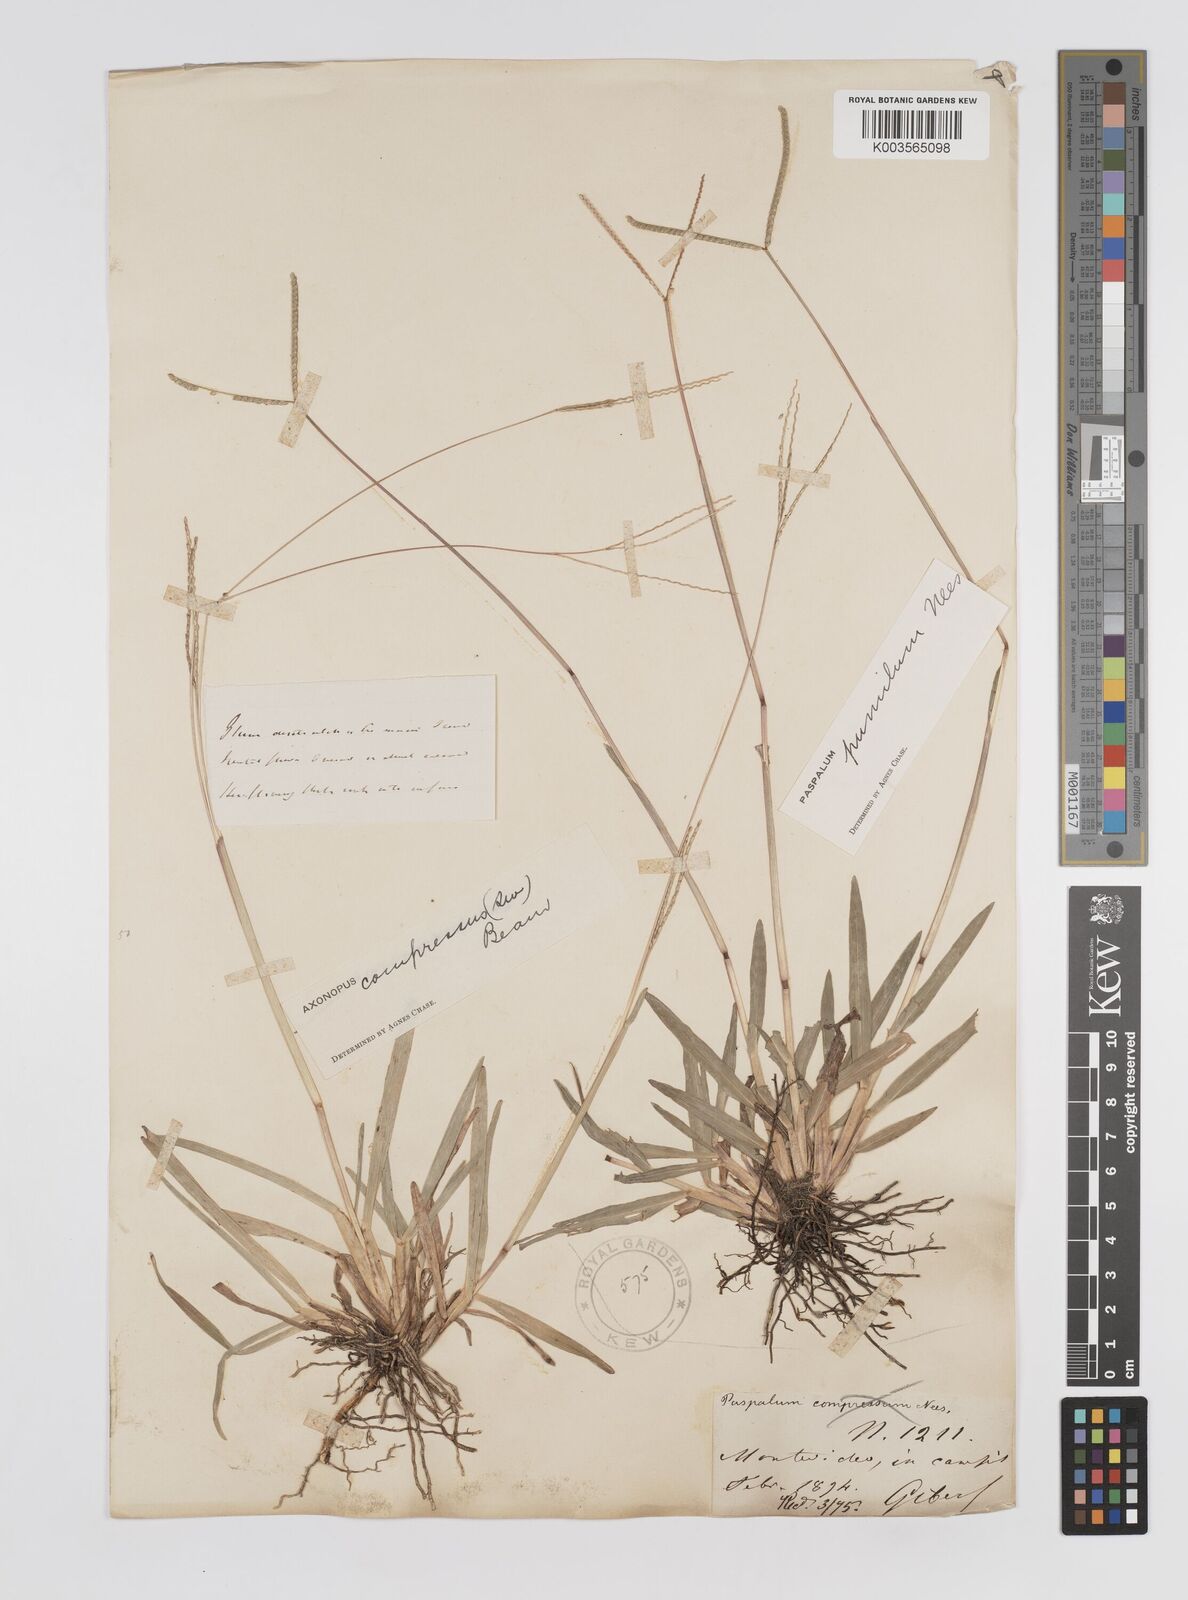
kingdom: Plantae
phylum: Tracheophyta
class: Liliopsida
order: Poales
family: Poaceae
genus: Paspalum
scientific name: Paspalum clavuliferum
